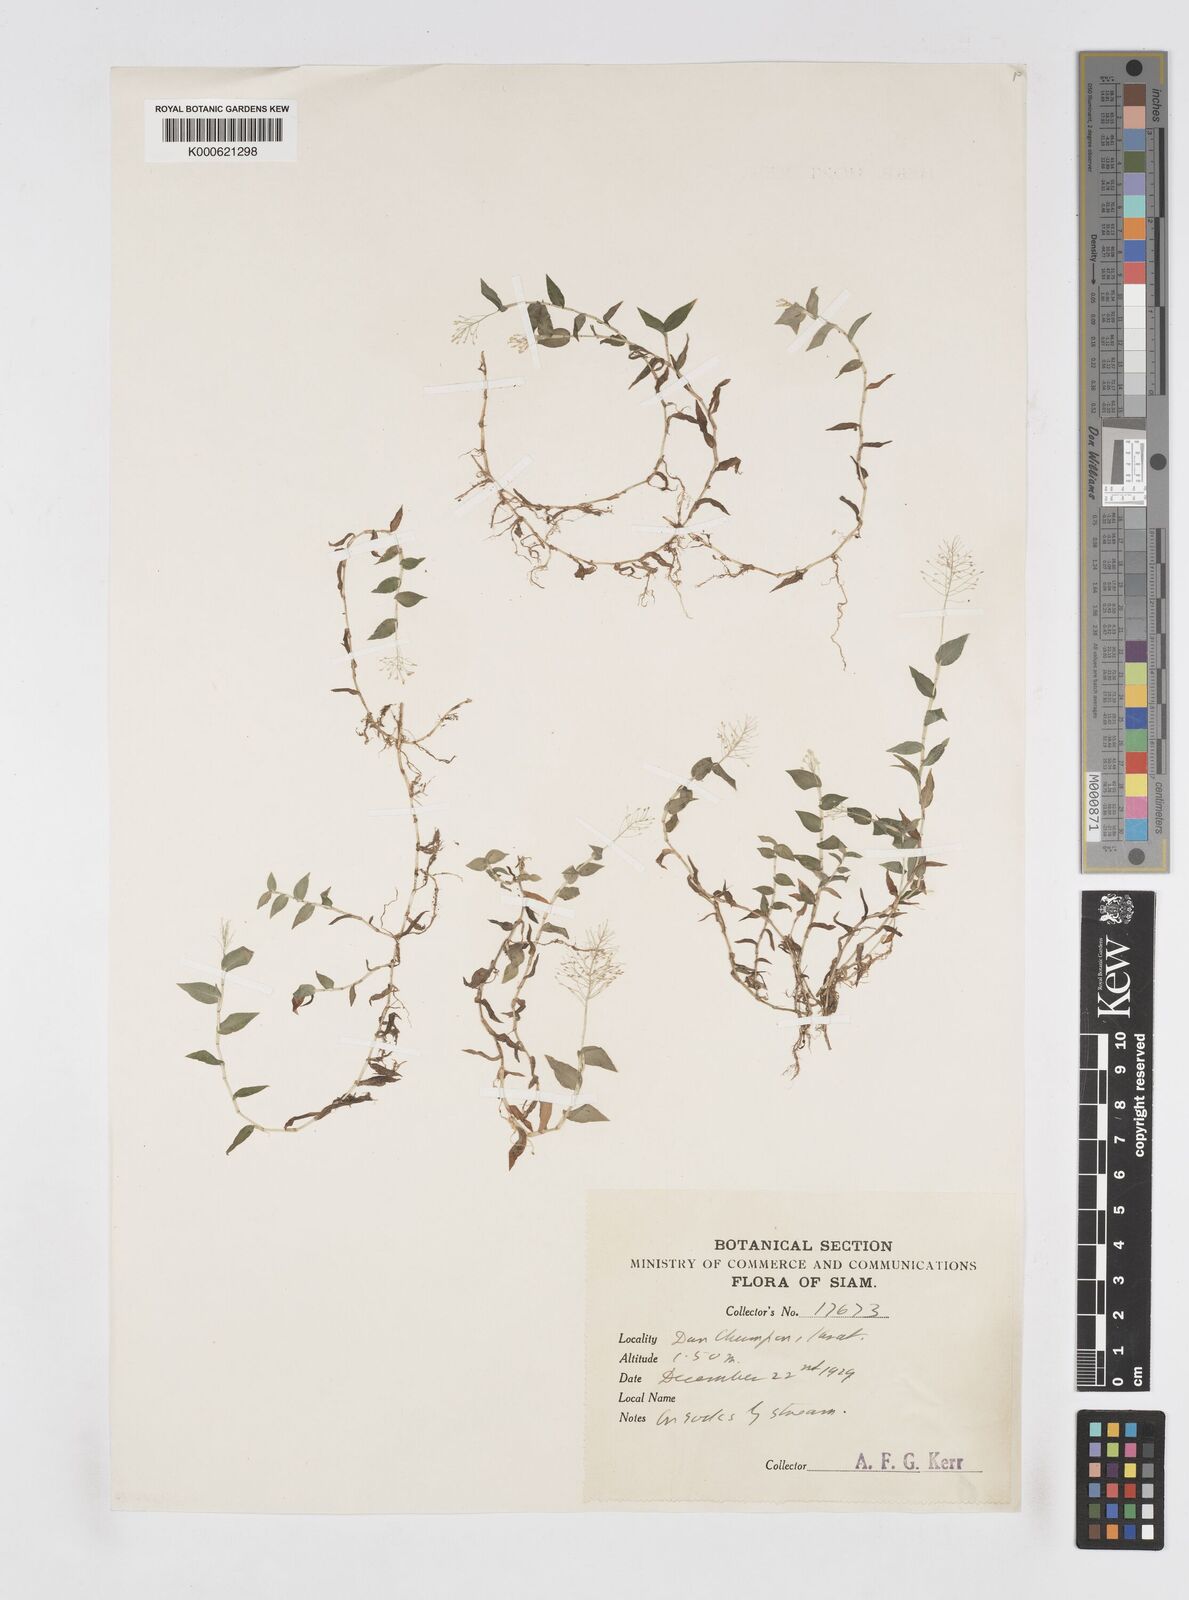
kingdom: Plantae
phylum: Tracheophyta
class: Liliopsida
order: Poales
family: Poaceae
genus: Sphaerocaryum
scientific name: Sphaerocaryum malaccense
